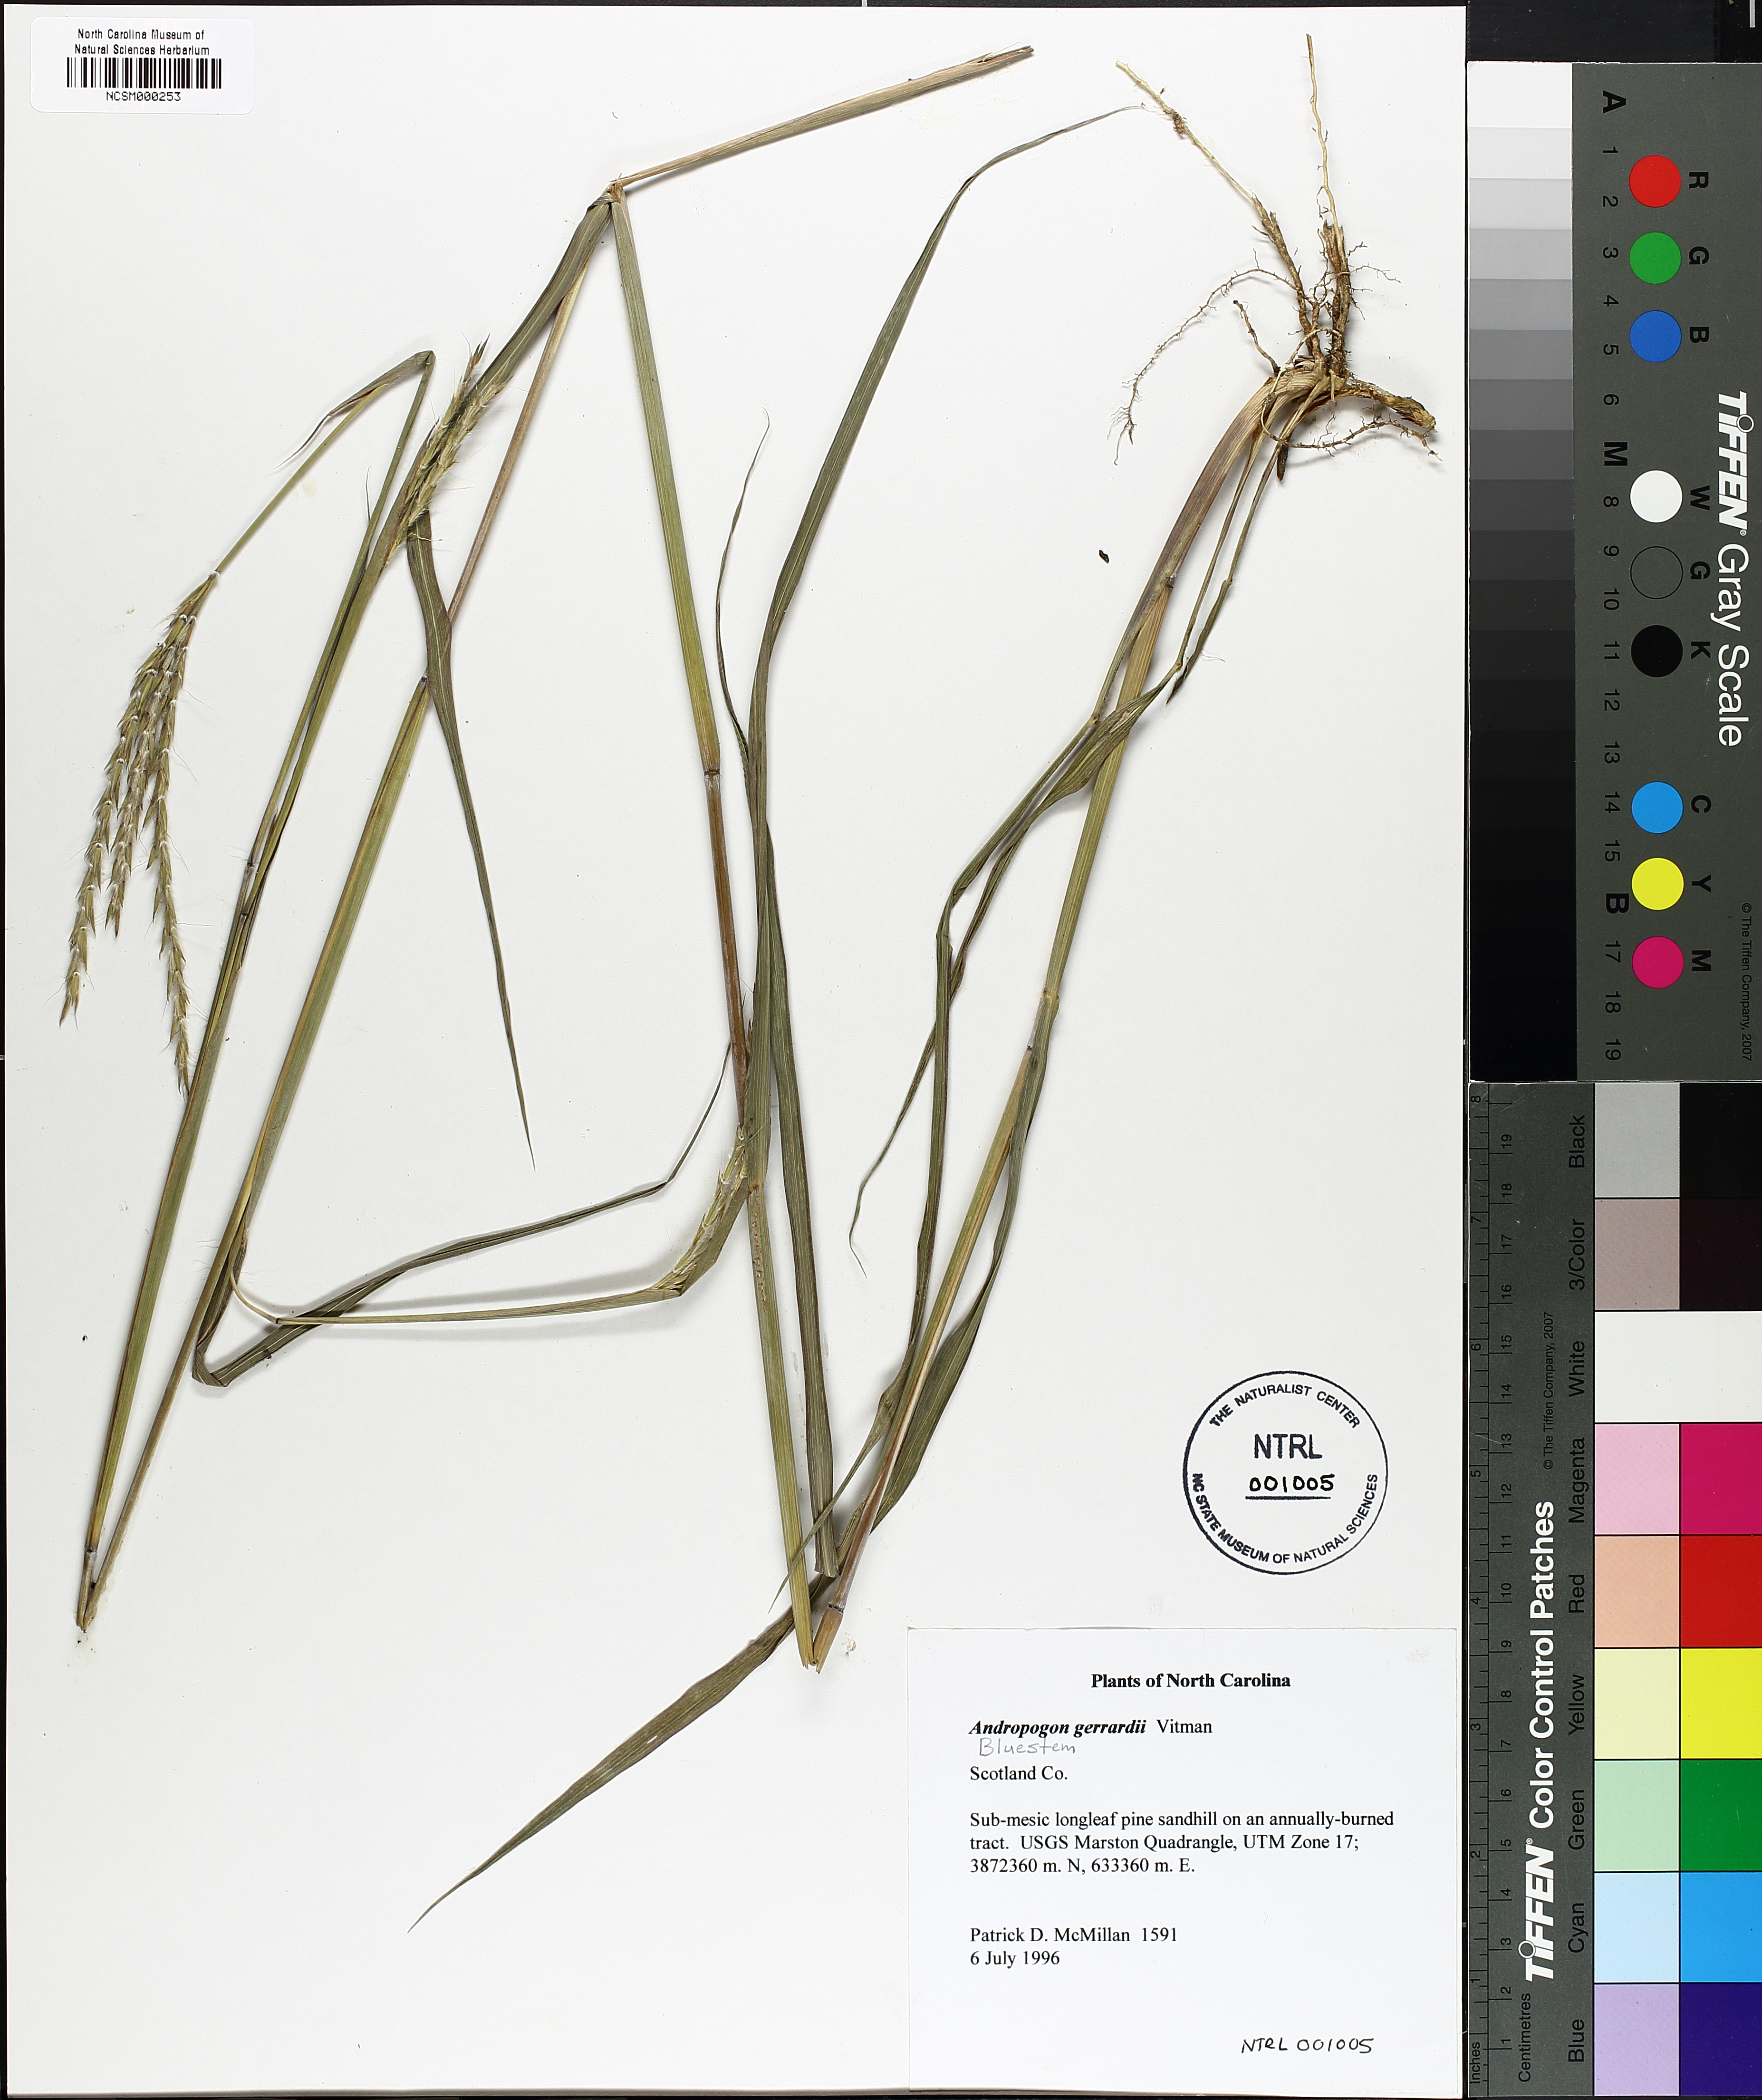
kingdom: Plantae
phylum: Tracheophyta
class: Liliopsida
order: Poales
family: Poaceae
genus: Andropogon
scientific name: Andropogon gerardi
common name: Big bluestem
